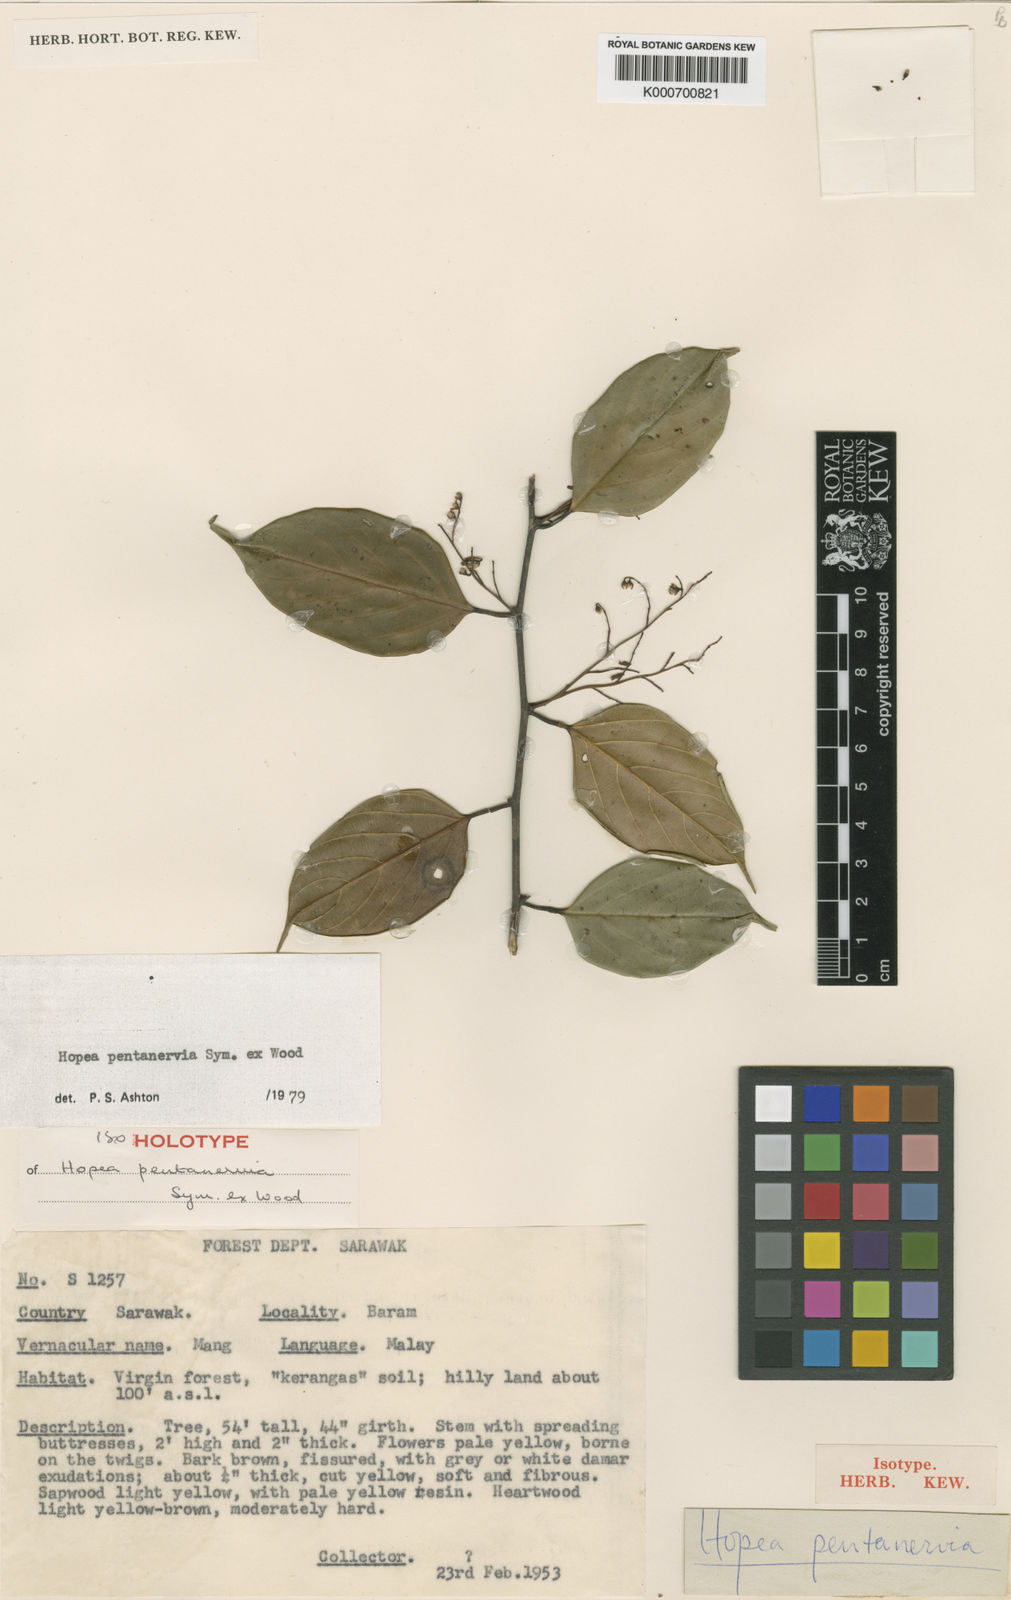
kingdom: Plantae
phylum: Tracheophyta
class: Magnoliopsida
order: Malvales
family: Dipterocarpaceae
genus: Hopea
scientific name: Hopea pentanervia
